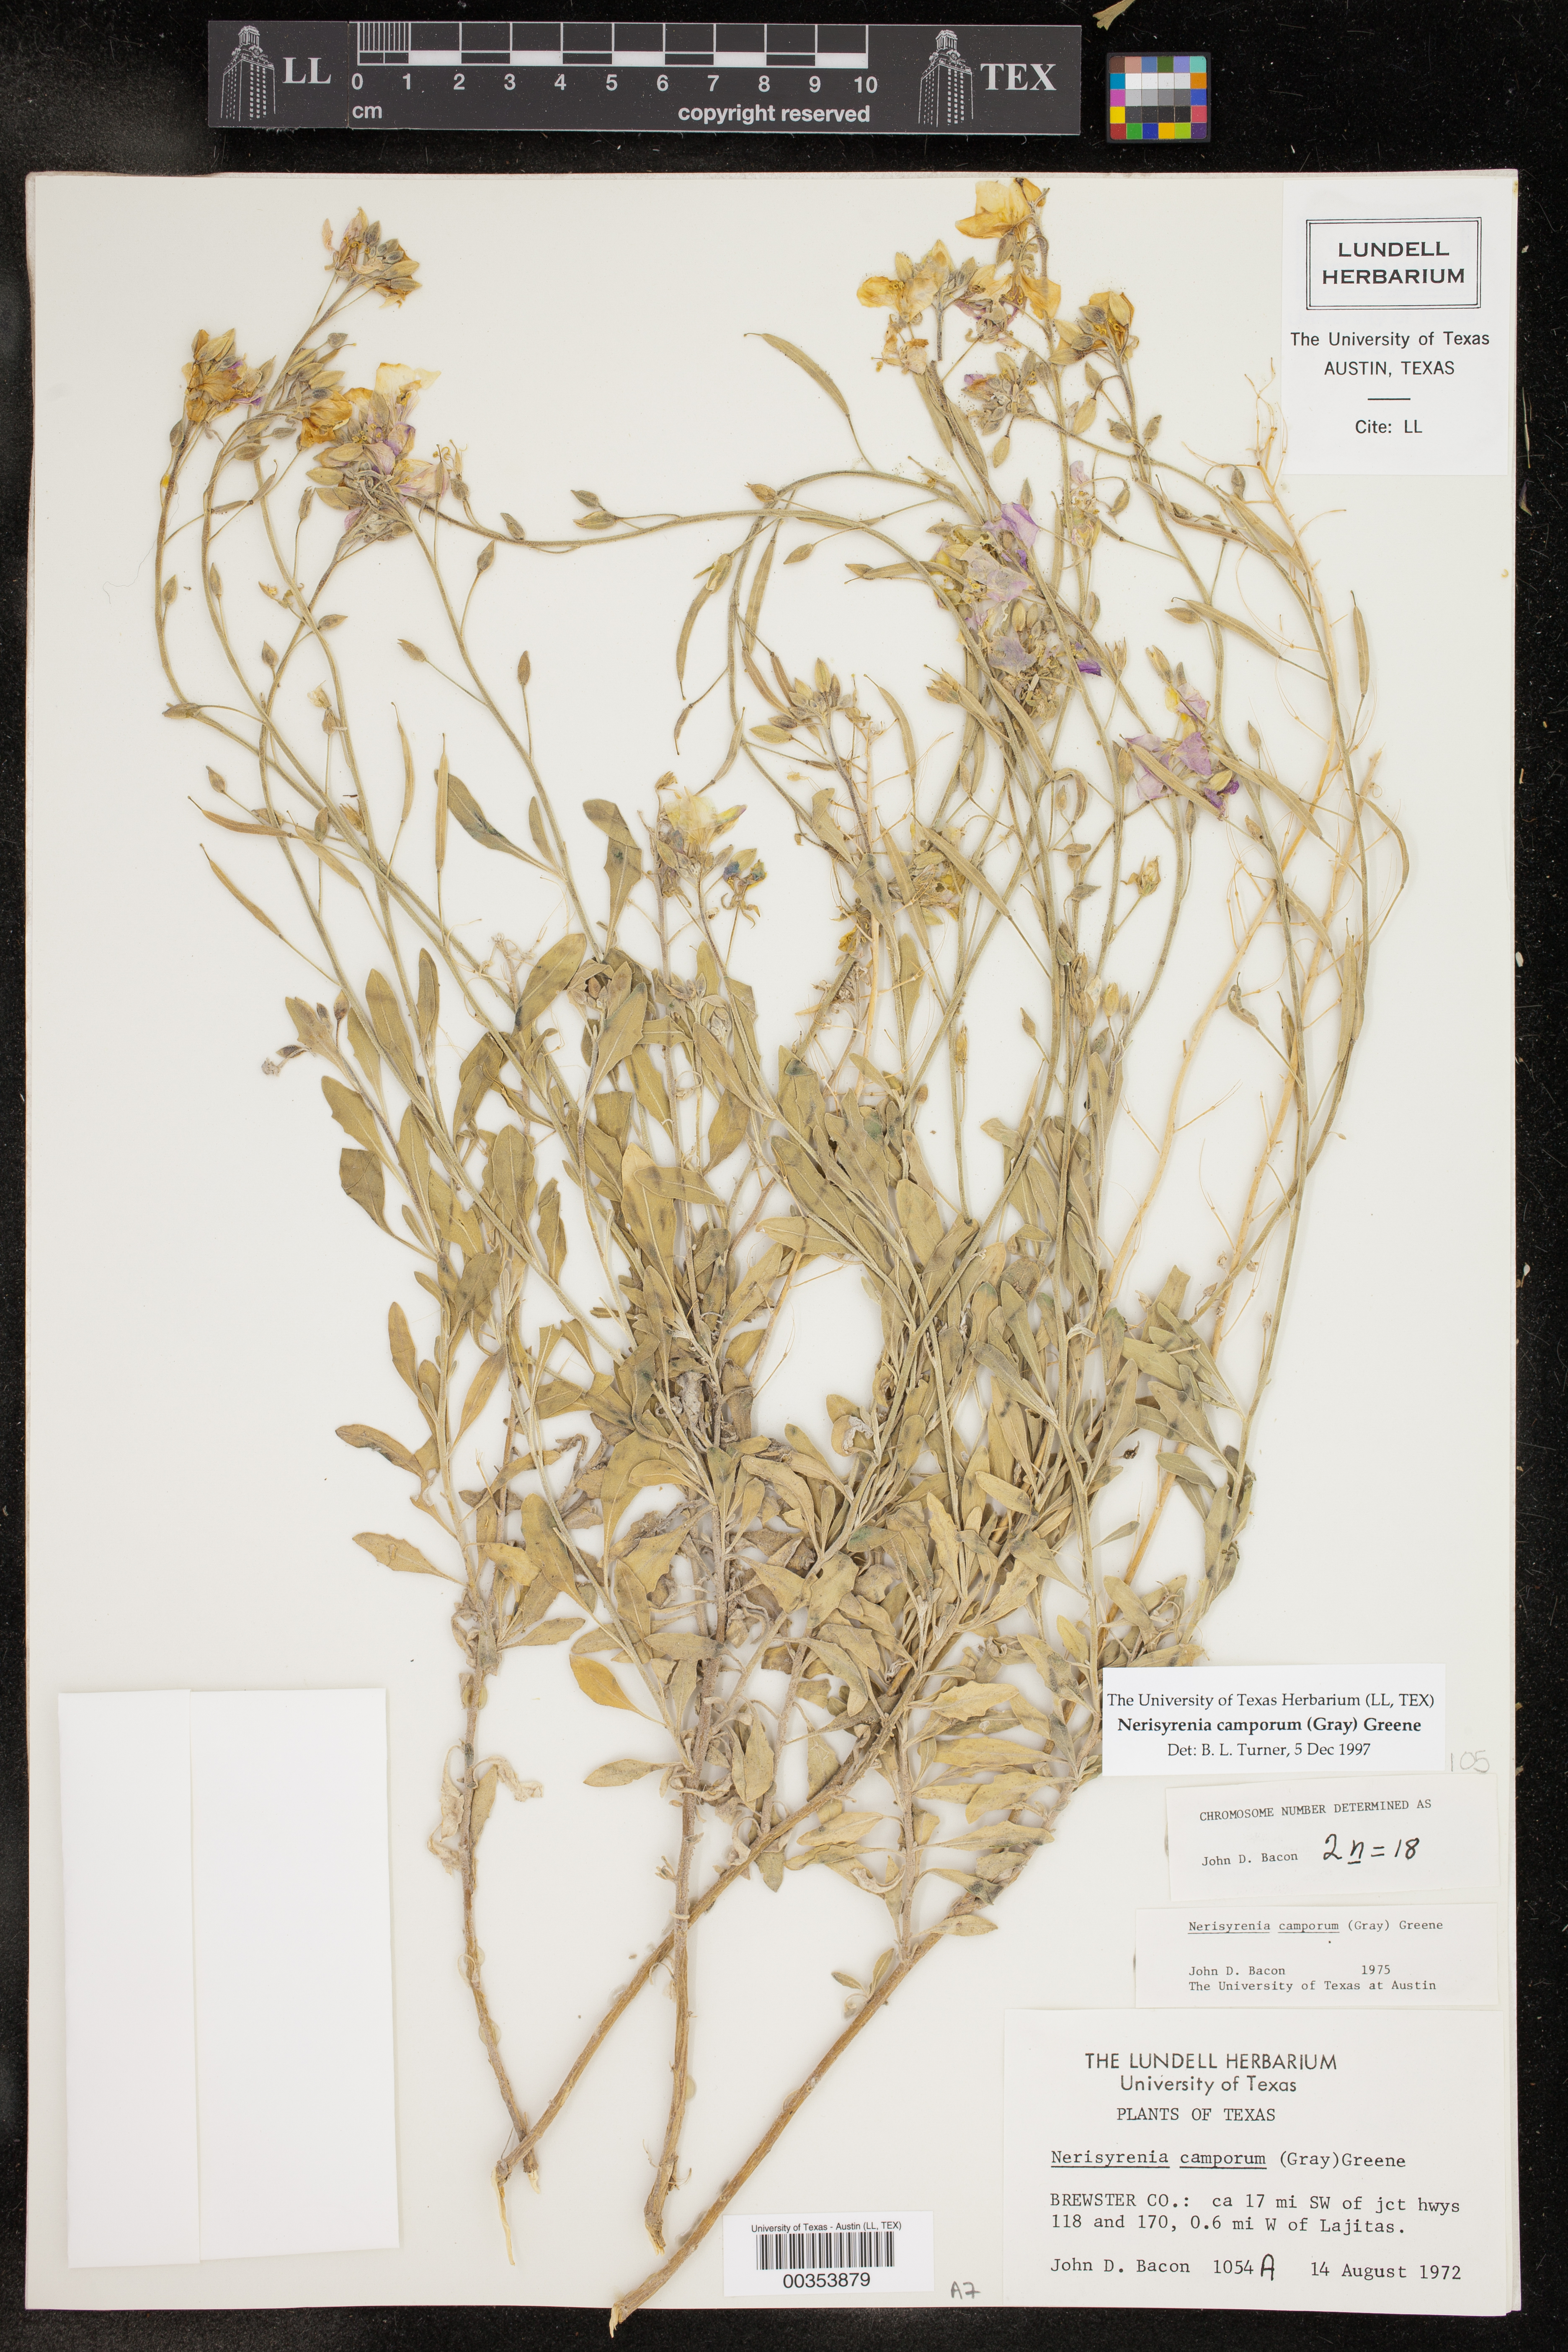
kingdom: Plantae
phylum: Tracheophyta
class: Magnoliopsida
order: Brassicales
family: Brassicaceae
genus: Nerisyrenia
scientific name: Nerisyrenia camporum
